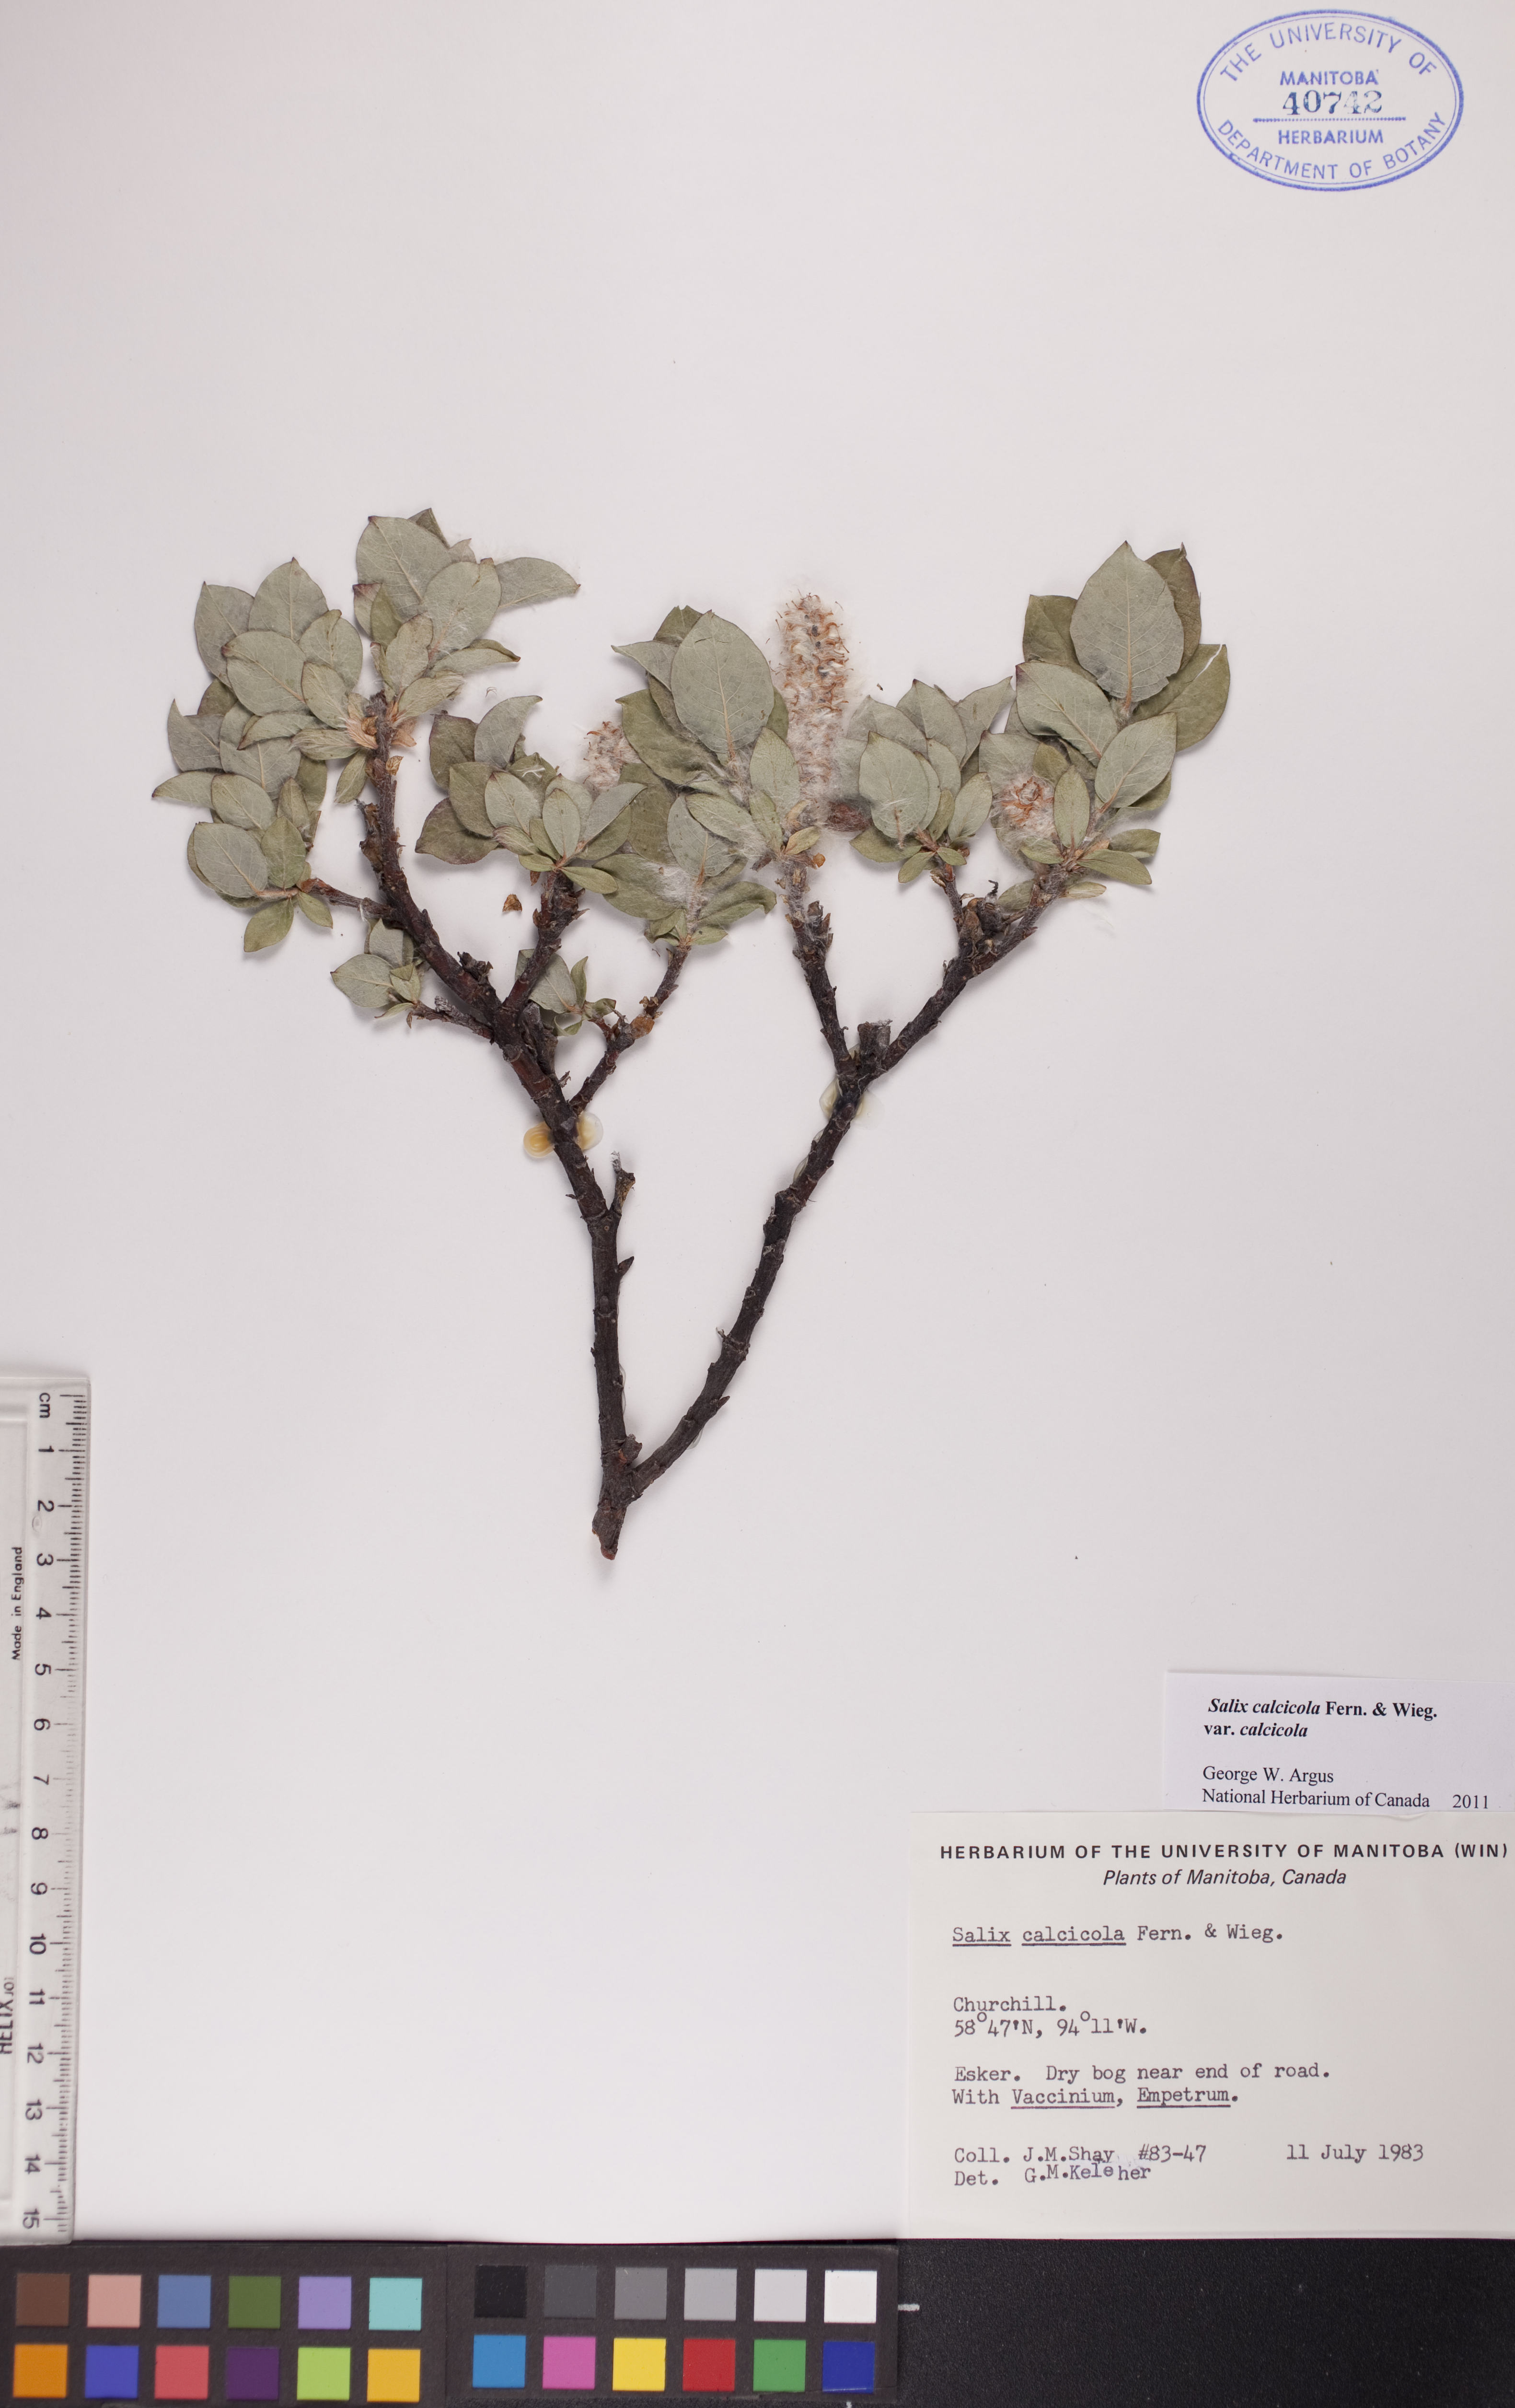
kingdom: Plantae
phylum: Tracheophyta
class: Magnoliopsida
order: Malpighiales
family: Salicaceae
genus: Salix
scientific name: Salix calcicola
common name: Calcareous willow
